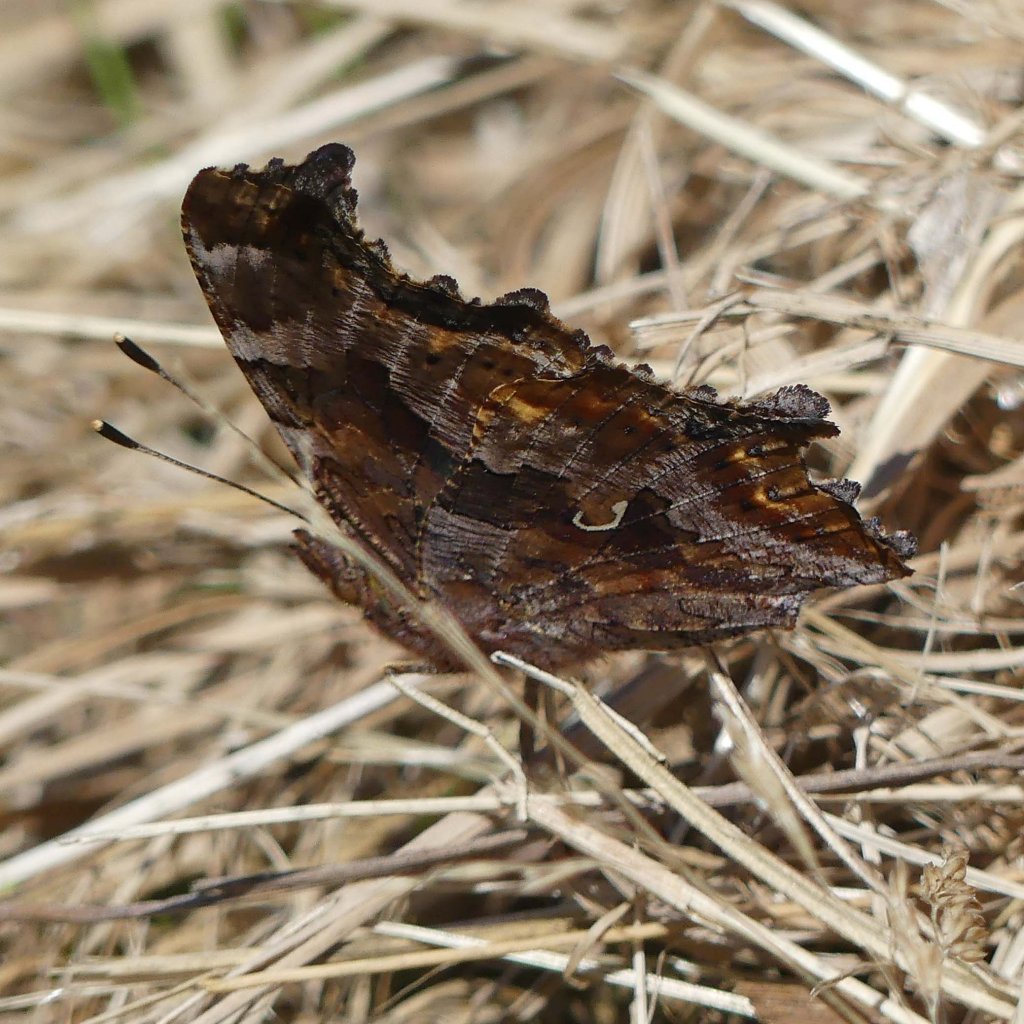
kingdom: Animalia
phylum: Arthropoda
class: Insecta
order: Lepidoptera
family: Nymphalidae
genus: Polygonia
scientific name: Polygonia comma
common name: Eastern Comma
